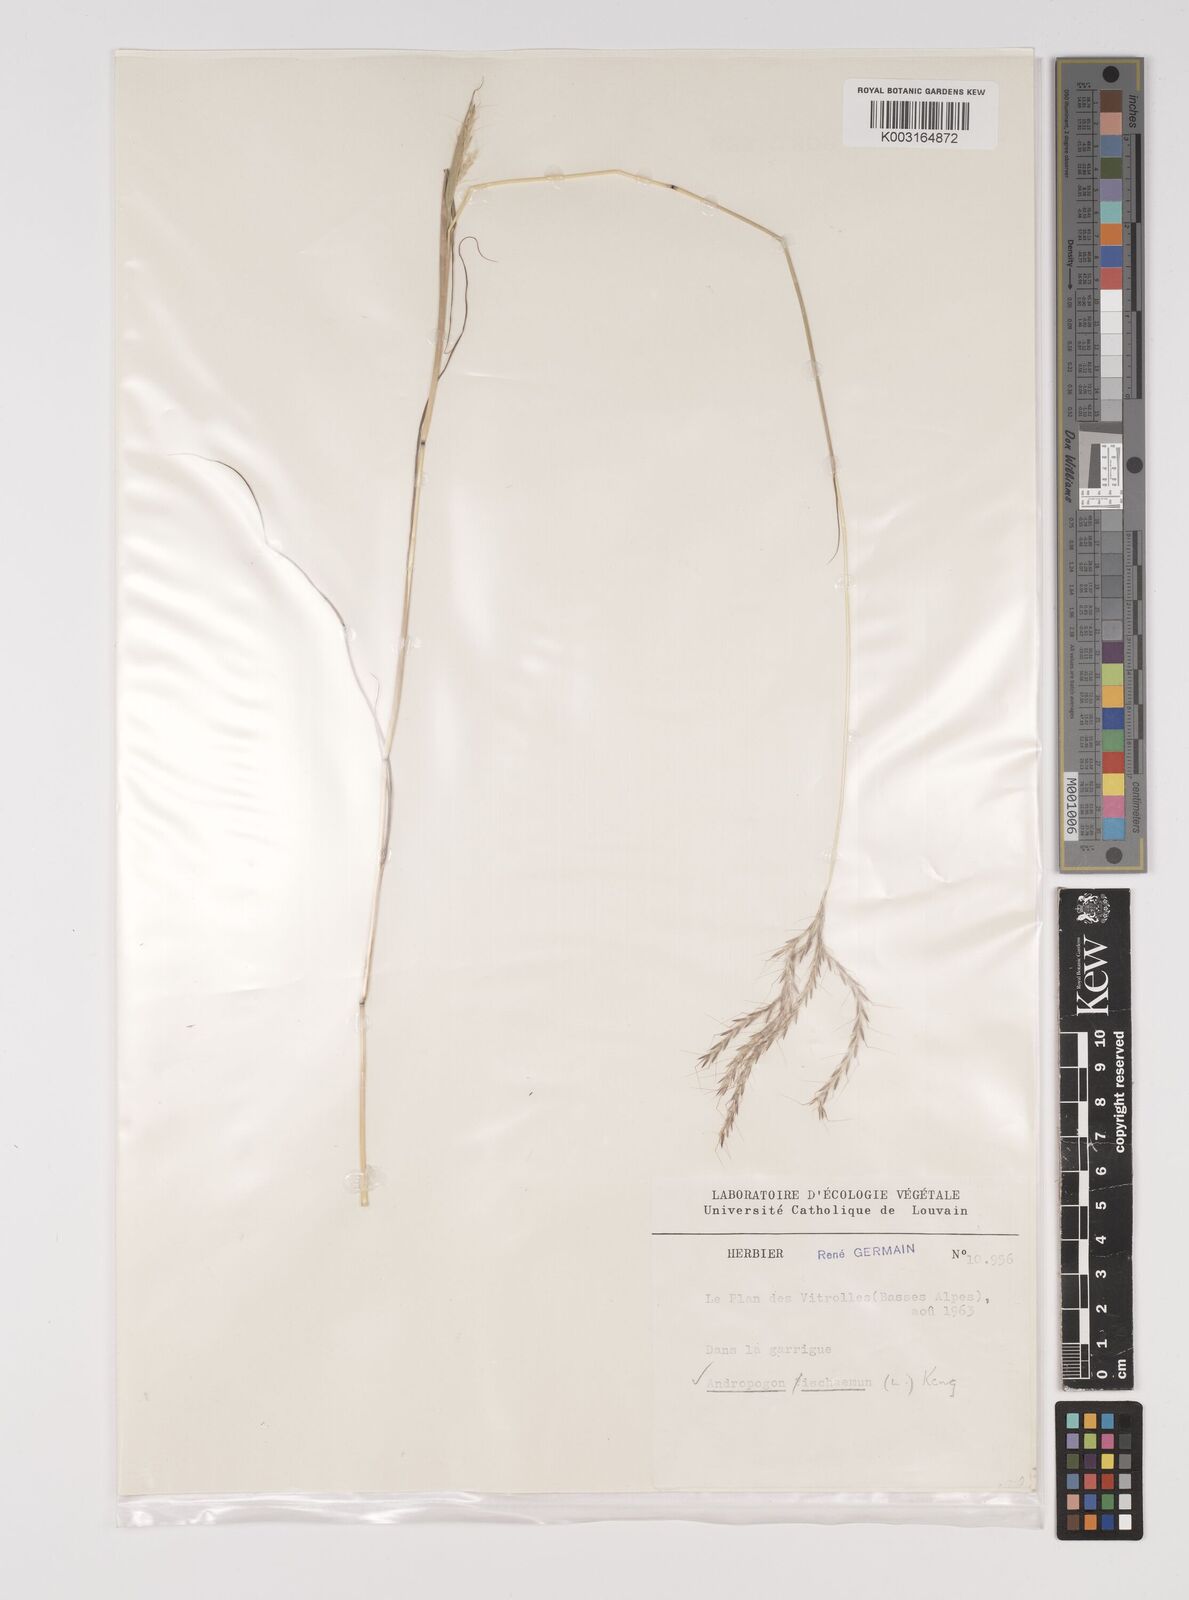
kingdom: Plantae
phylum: Tracheophyta
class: Liliopsida
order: Poales
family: Poaceae
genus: Bothriochloa
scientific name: Bothriochloa ischaemum
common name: Yellow bluestem
